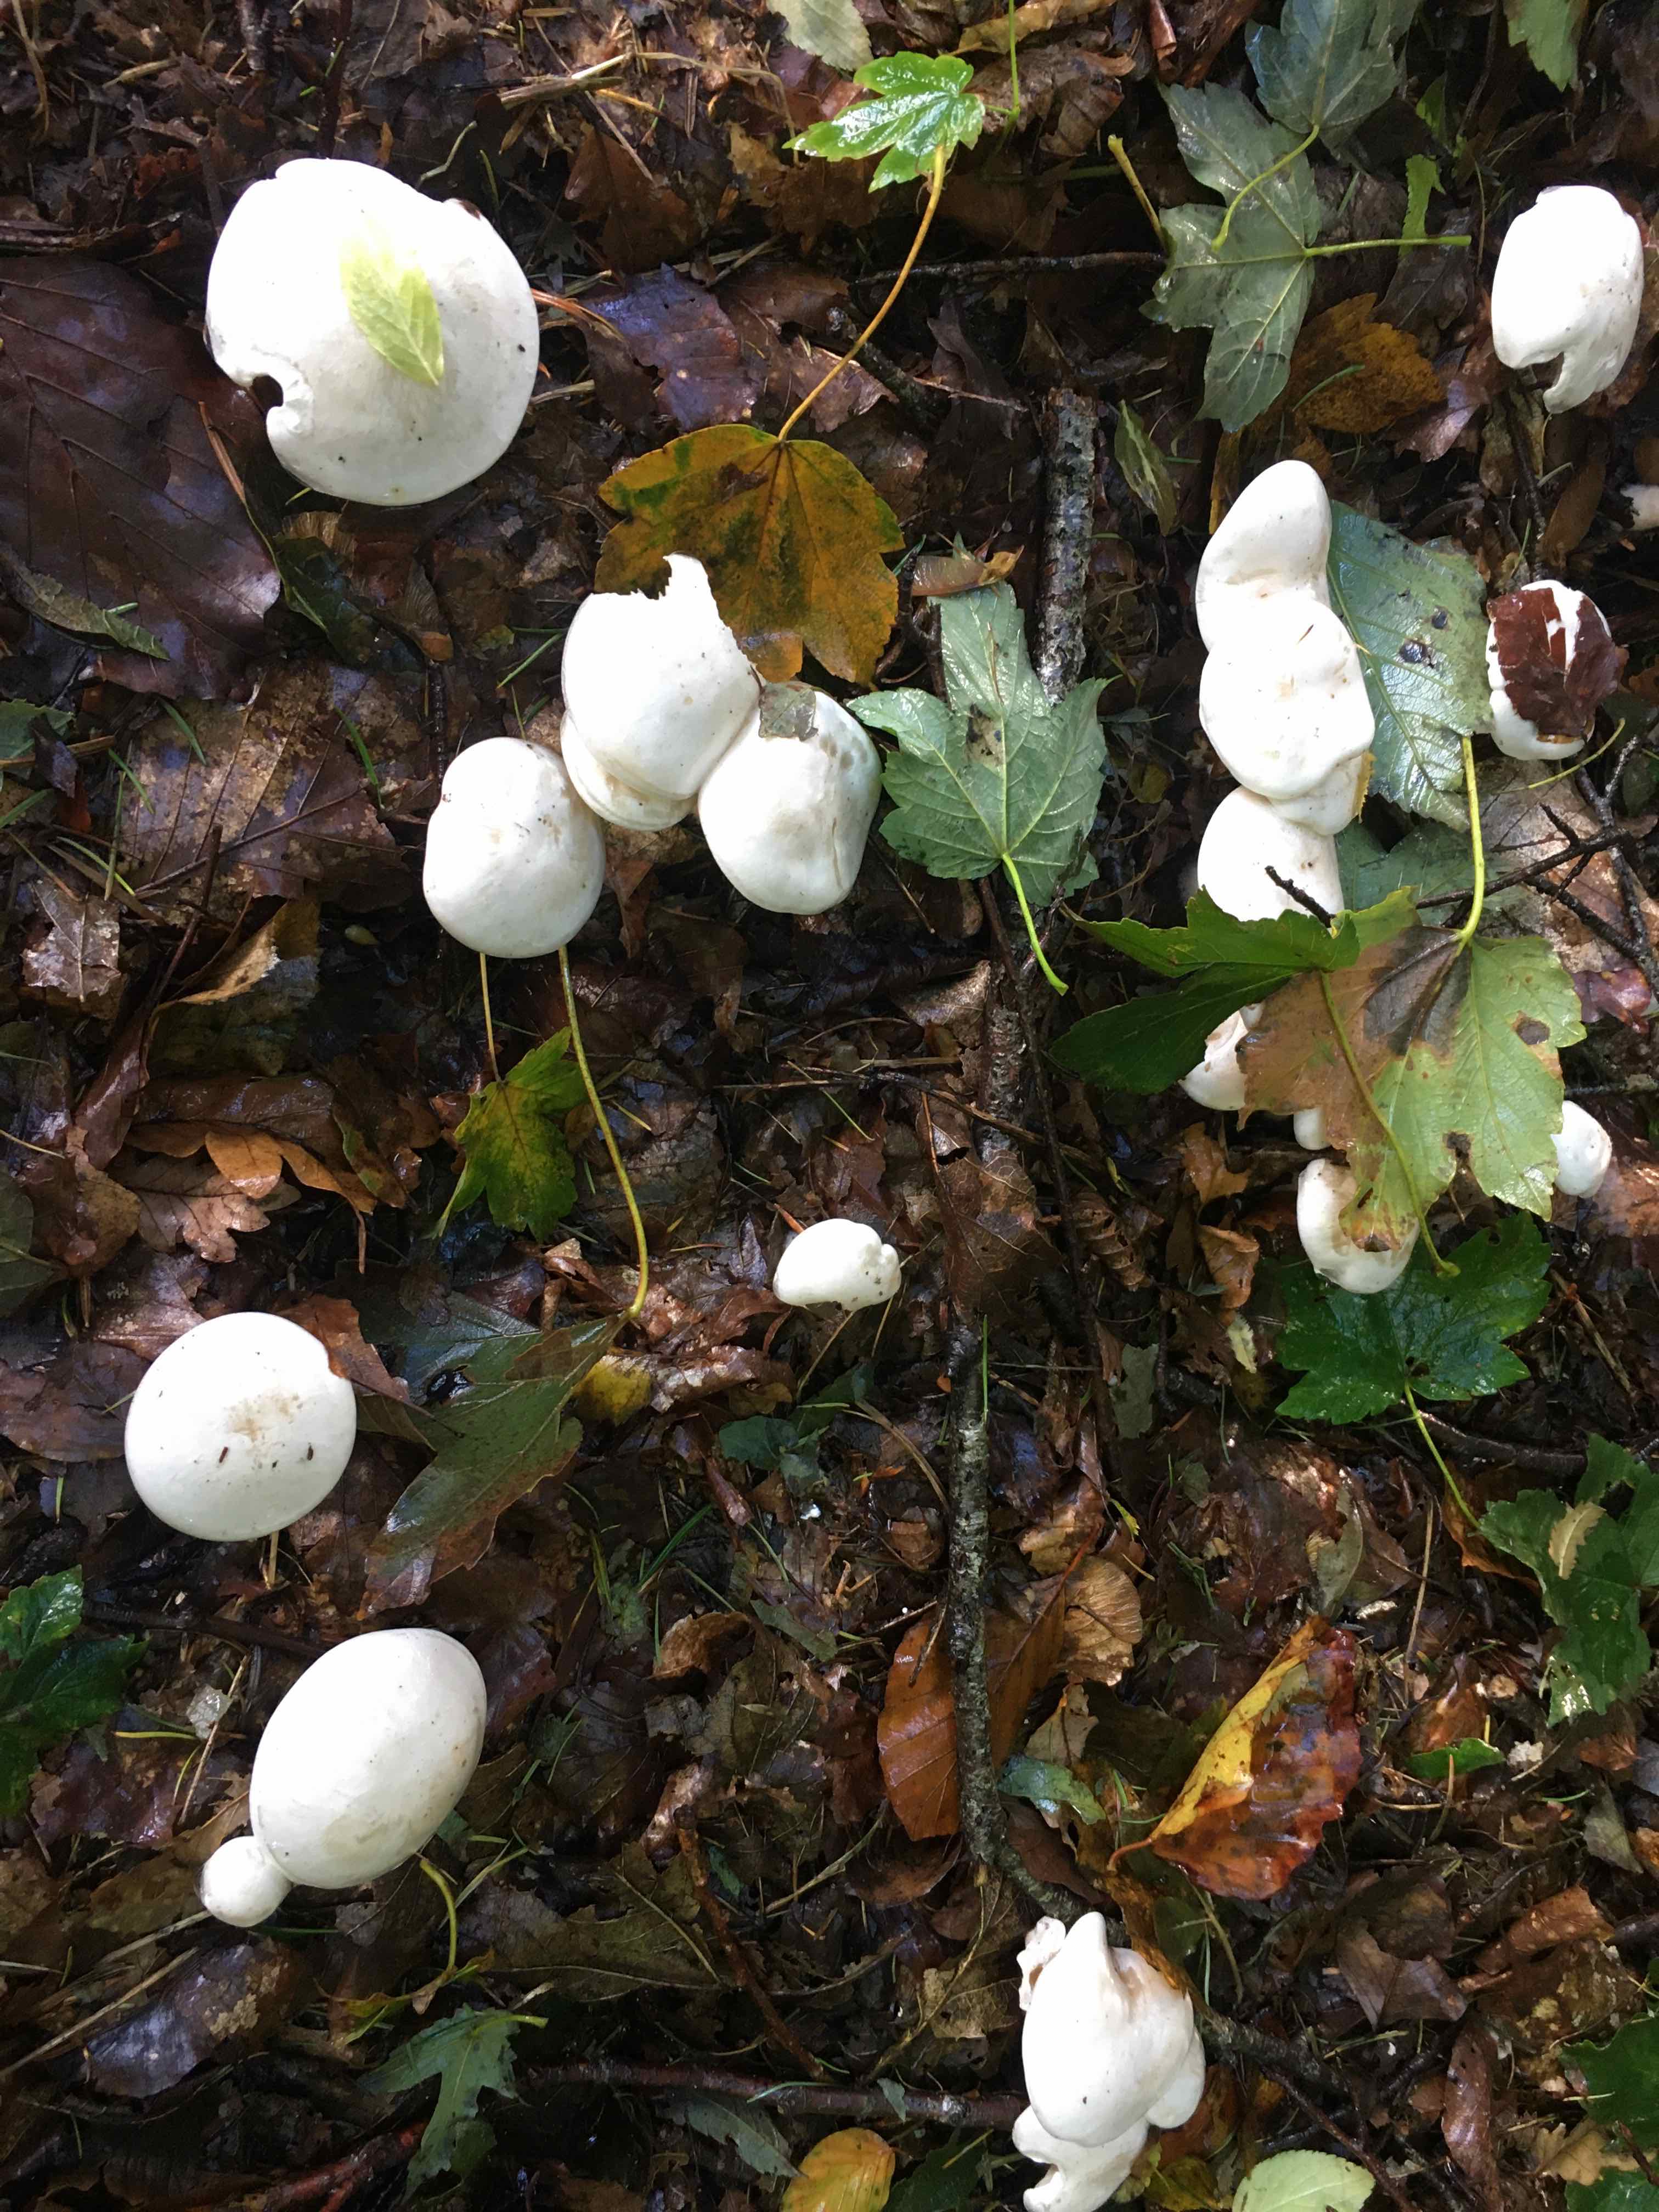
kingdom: Fungi
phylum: Basidiomycota
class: Agaricomycetes
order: Agaricales
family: Tricholomataceae
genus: Clitocybe
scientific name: Clitocybe
